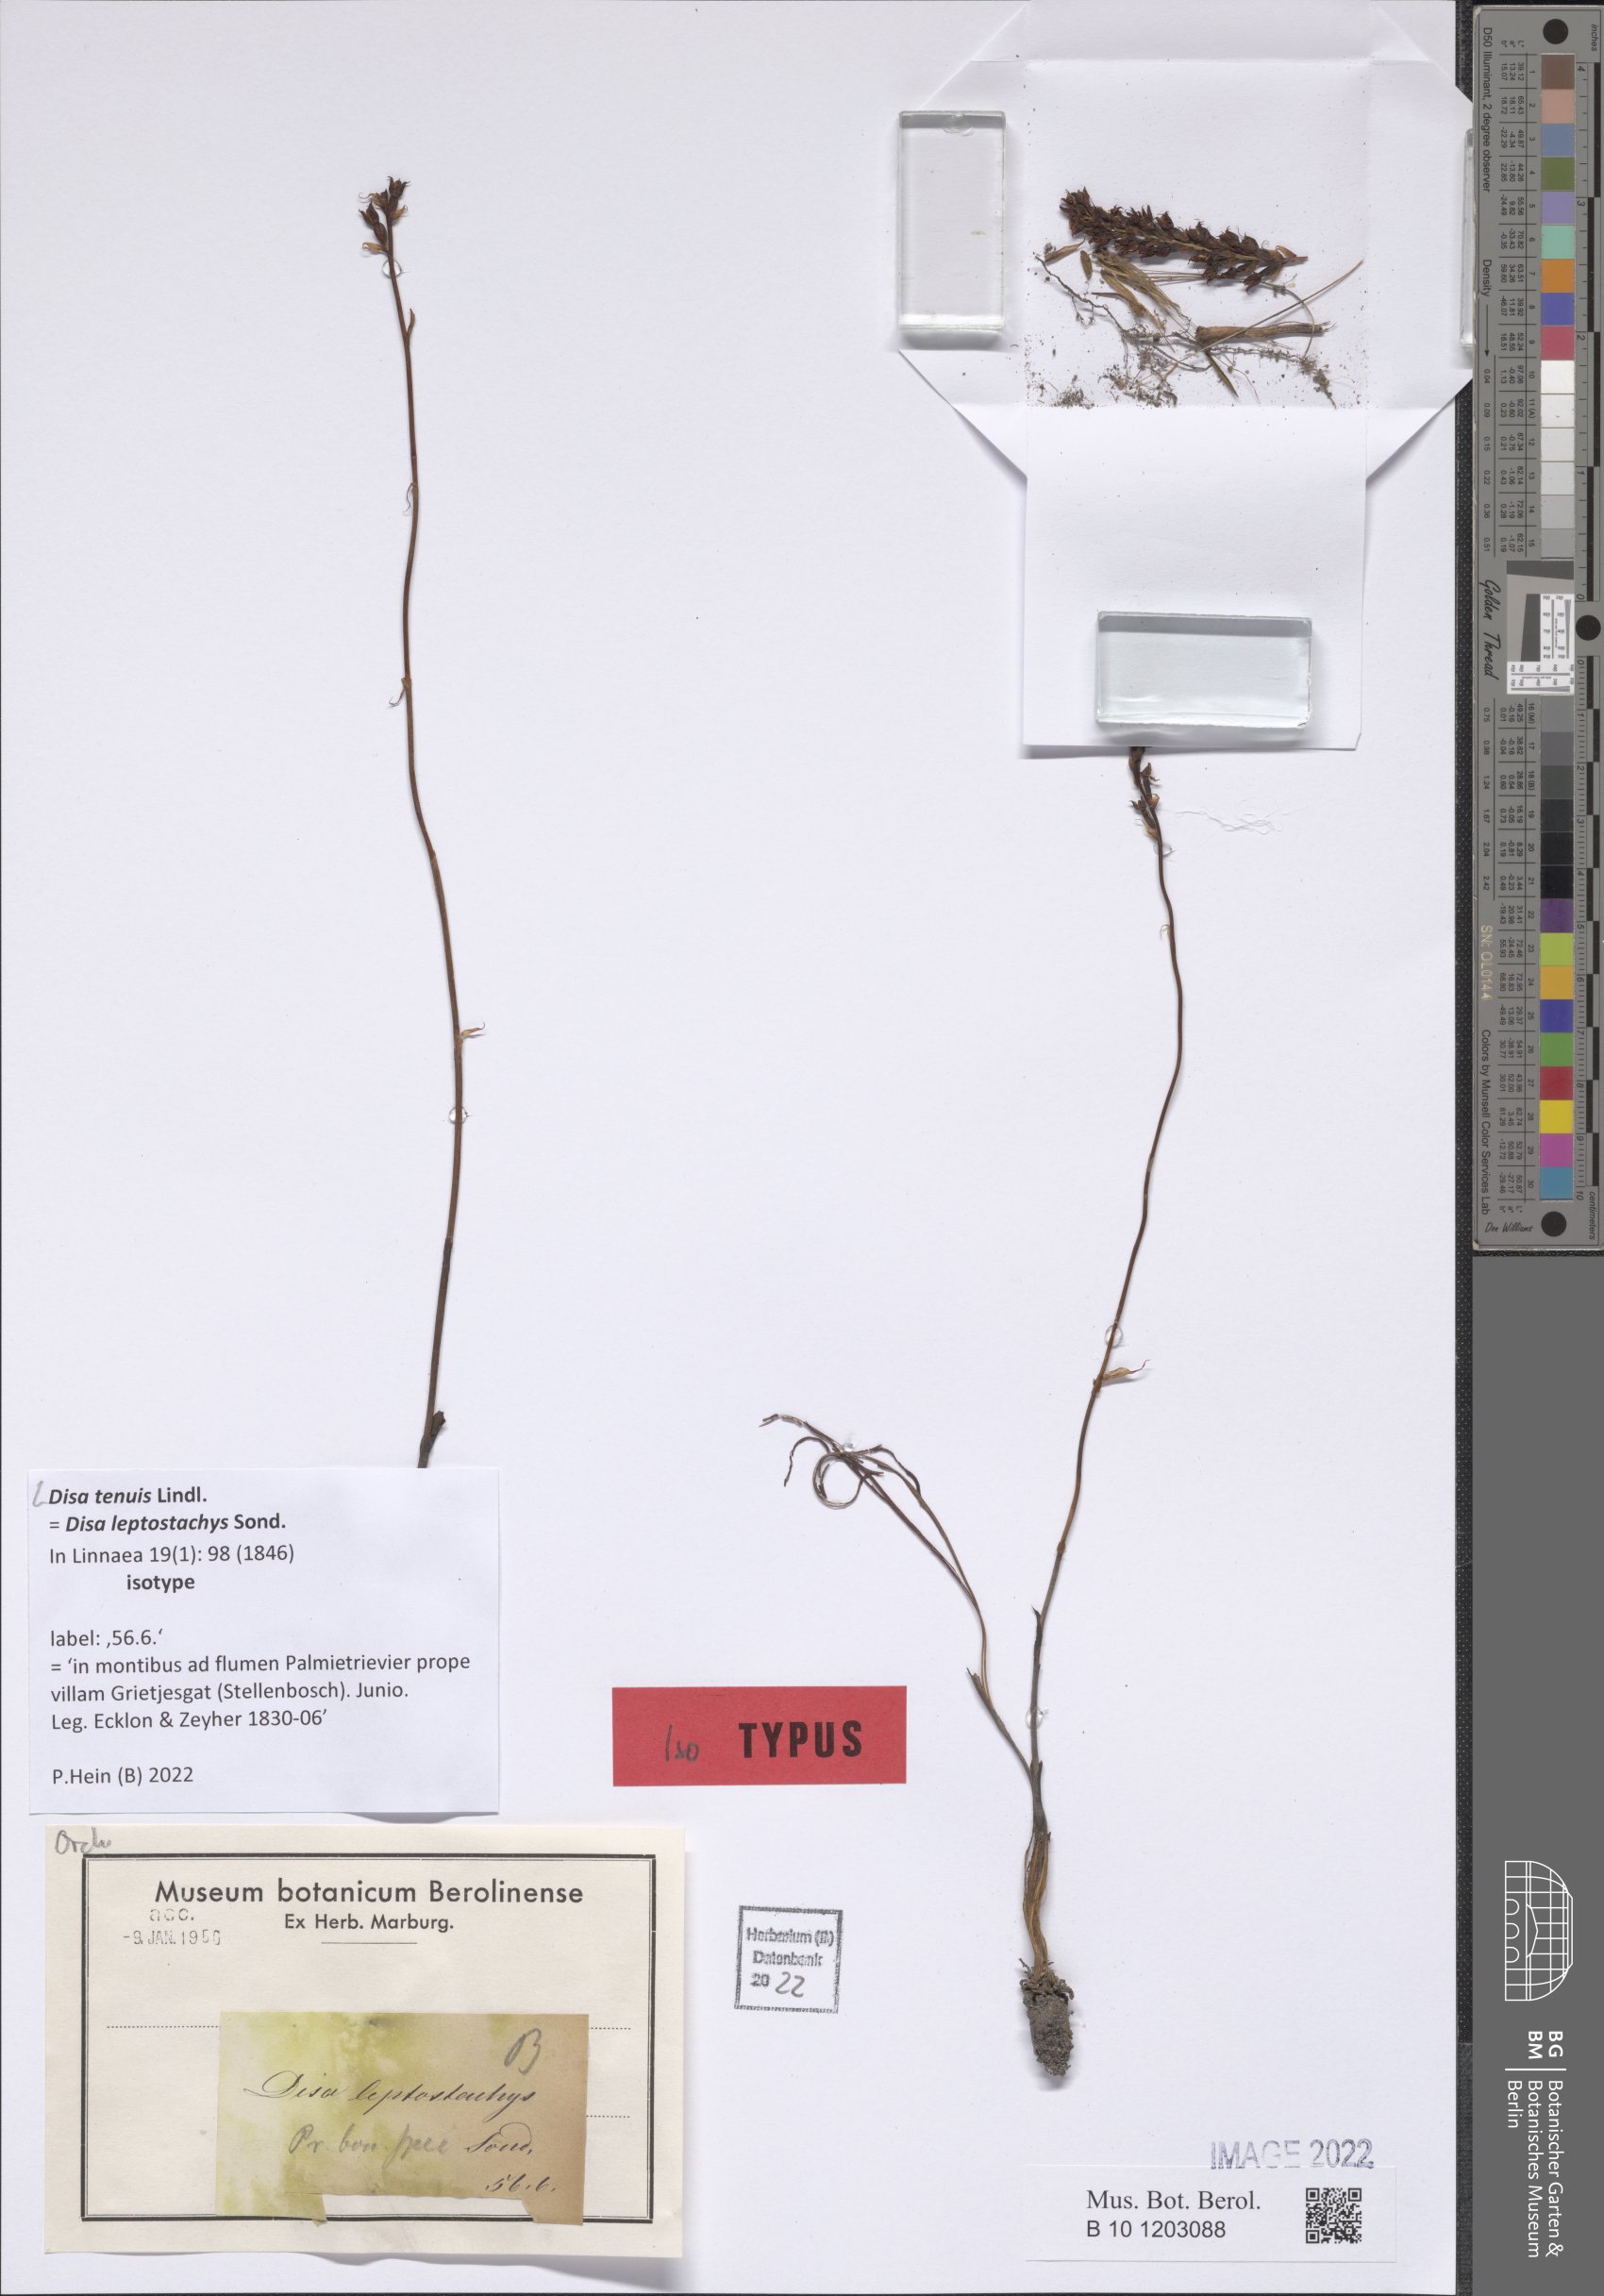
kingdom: Plantae
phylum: Tracheophyta
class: Liliopsida
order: Asparagales
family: Orchidaceae
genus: Disa
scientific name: Disa tenuis
